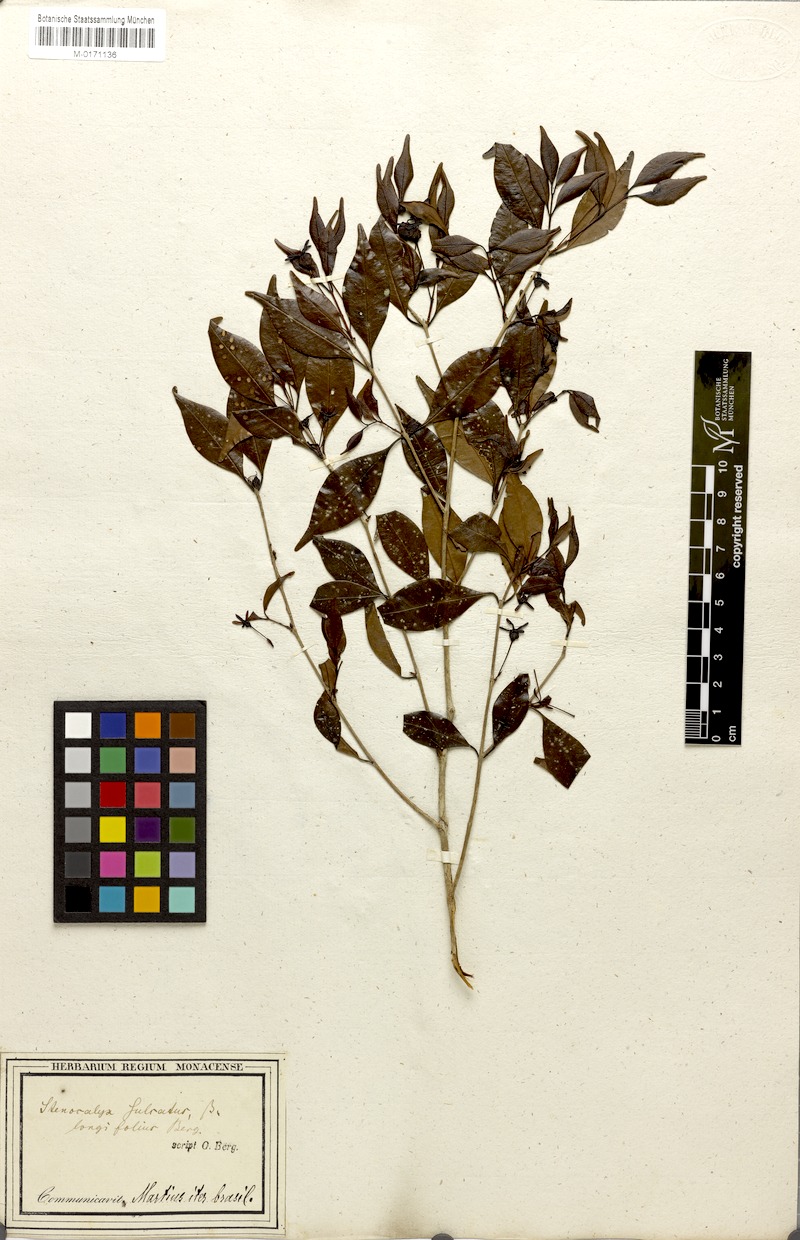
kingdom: Plantae
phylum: Tracheophyta
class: Magnoliopsida
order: Myrtales
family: Myrtaceae
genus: Eugenia
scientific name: Eugenia sulcata
